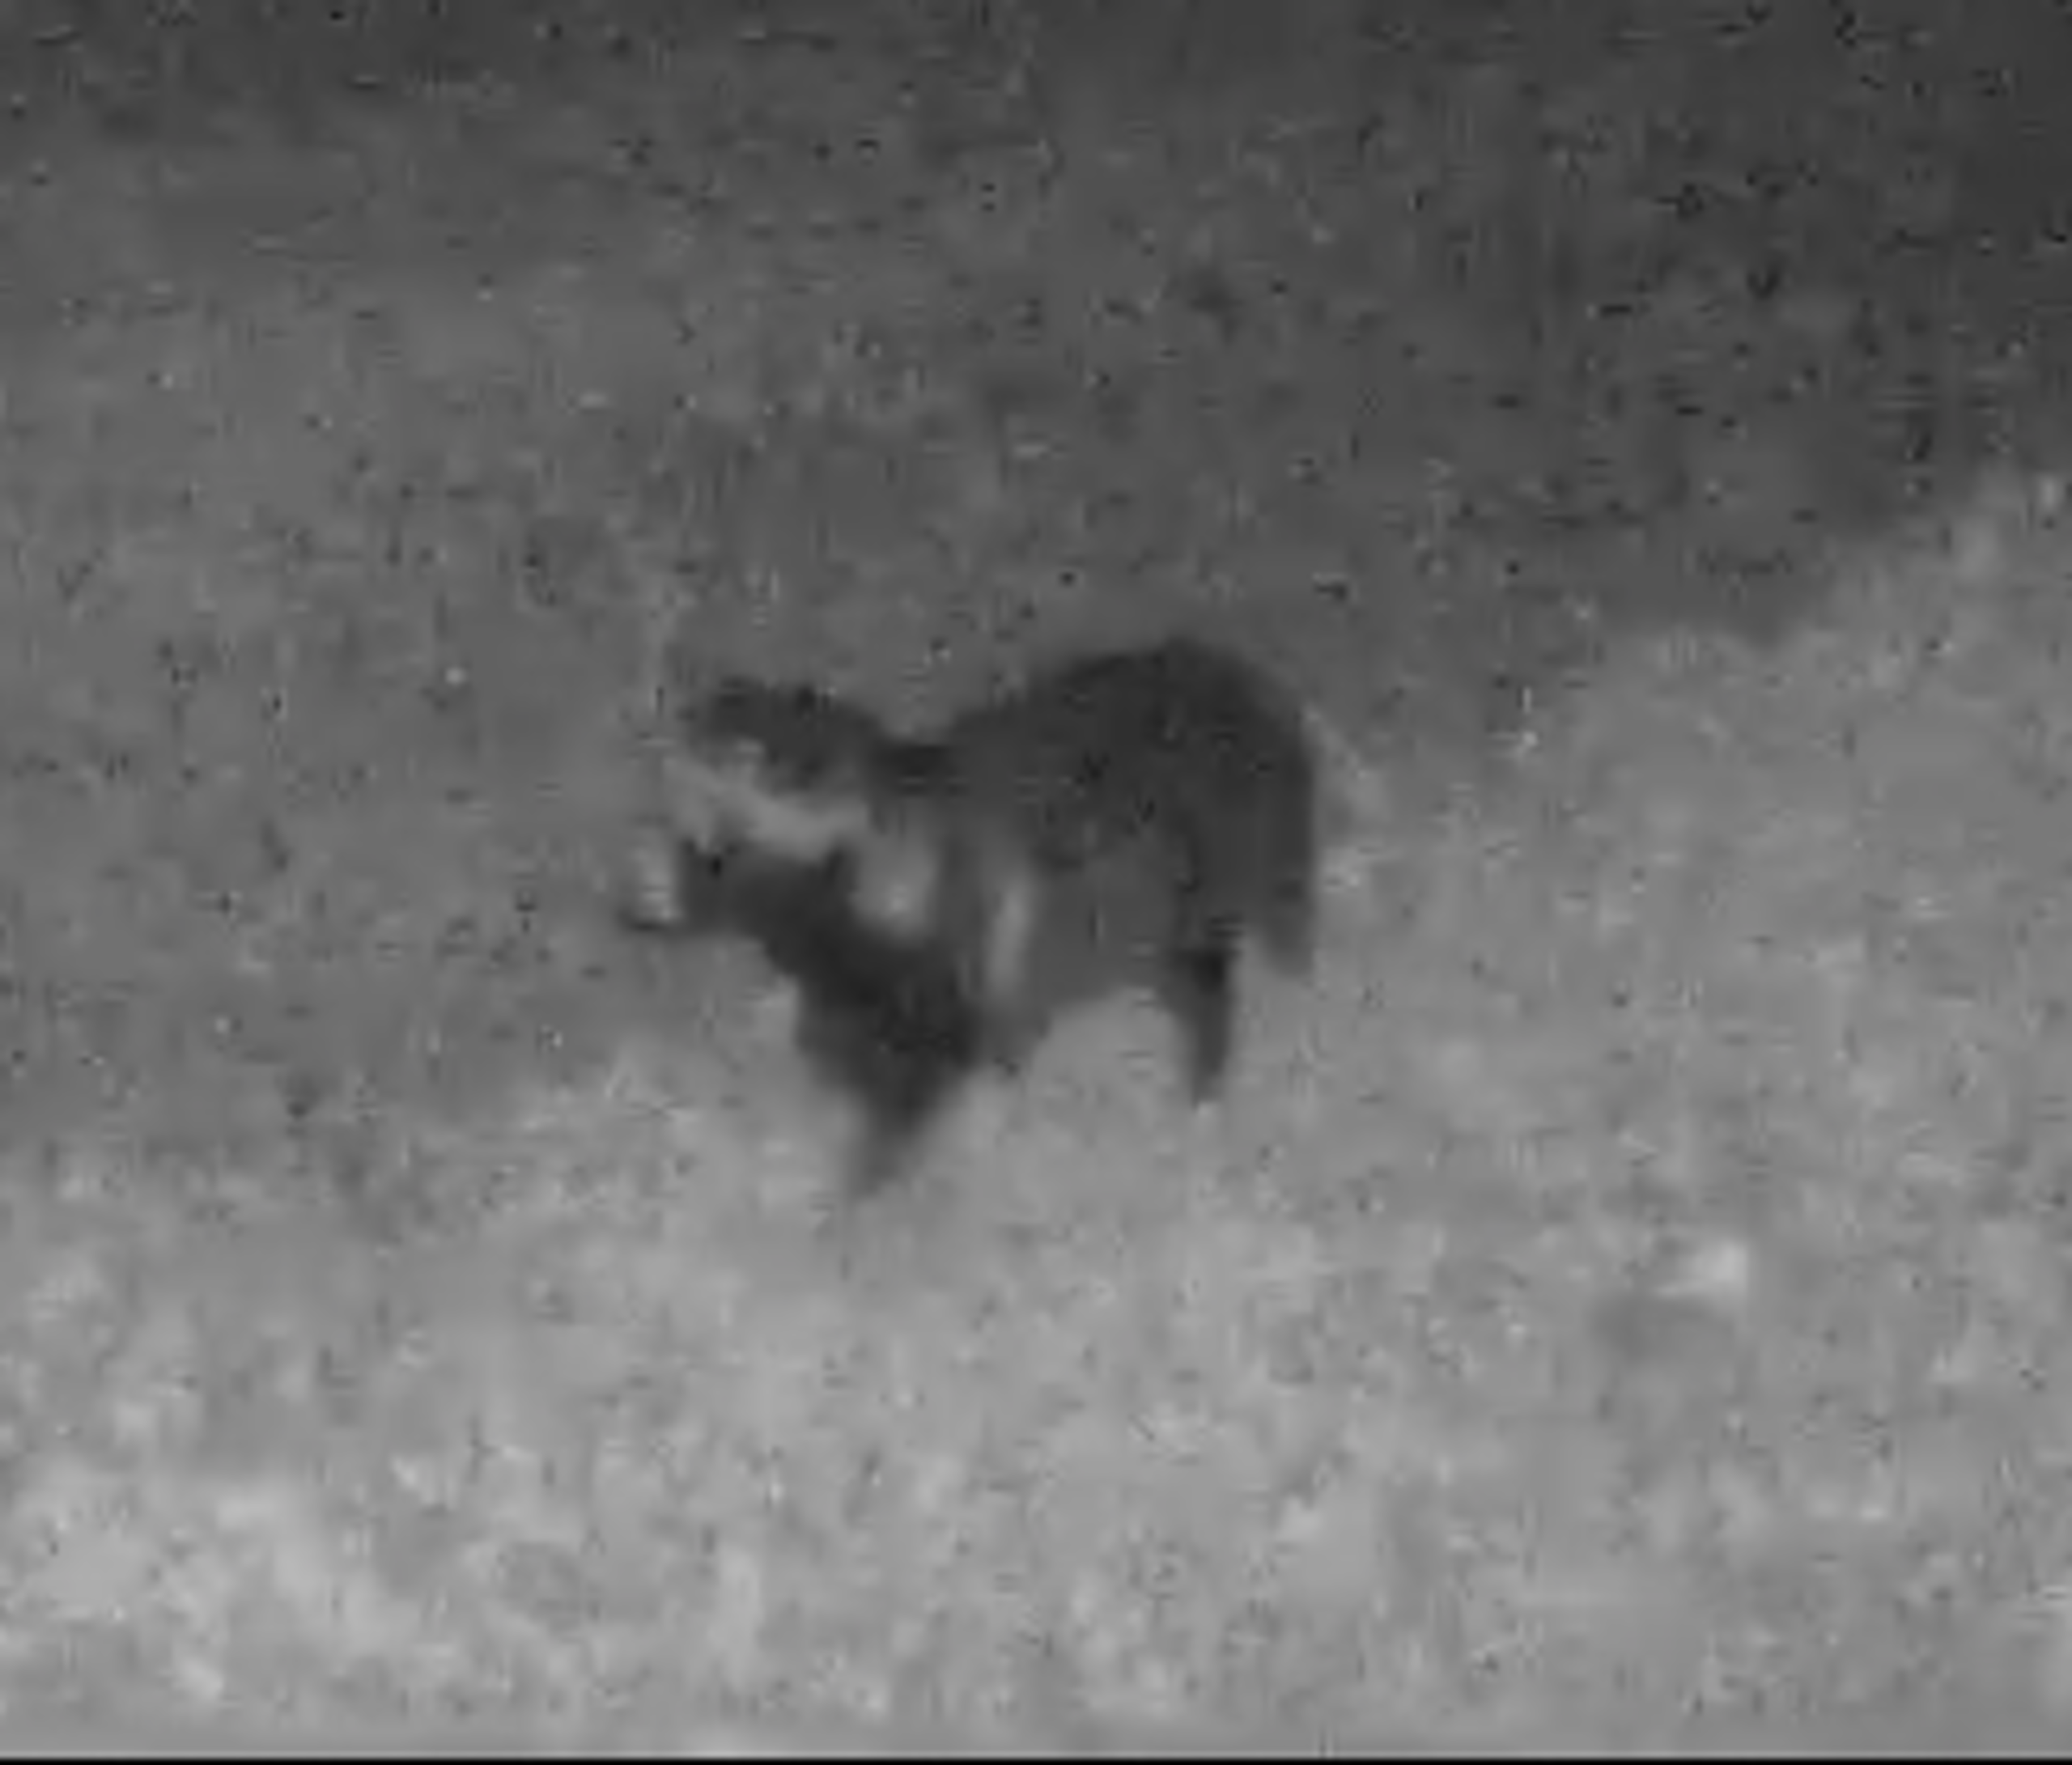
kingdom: Animalia
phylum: Chordata
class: Mammalia
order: Carnivora
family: Canidae
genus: Nyctereutes
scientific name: Nyctereutes procyonoides
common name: Mårhund
